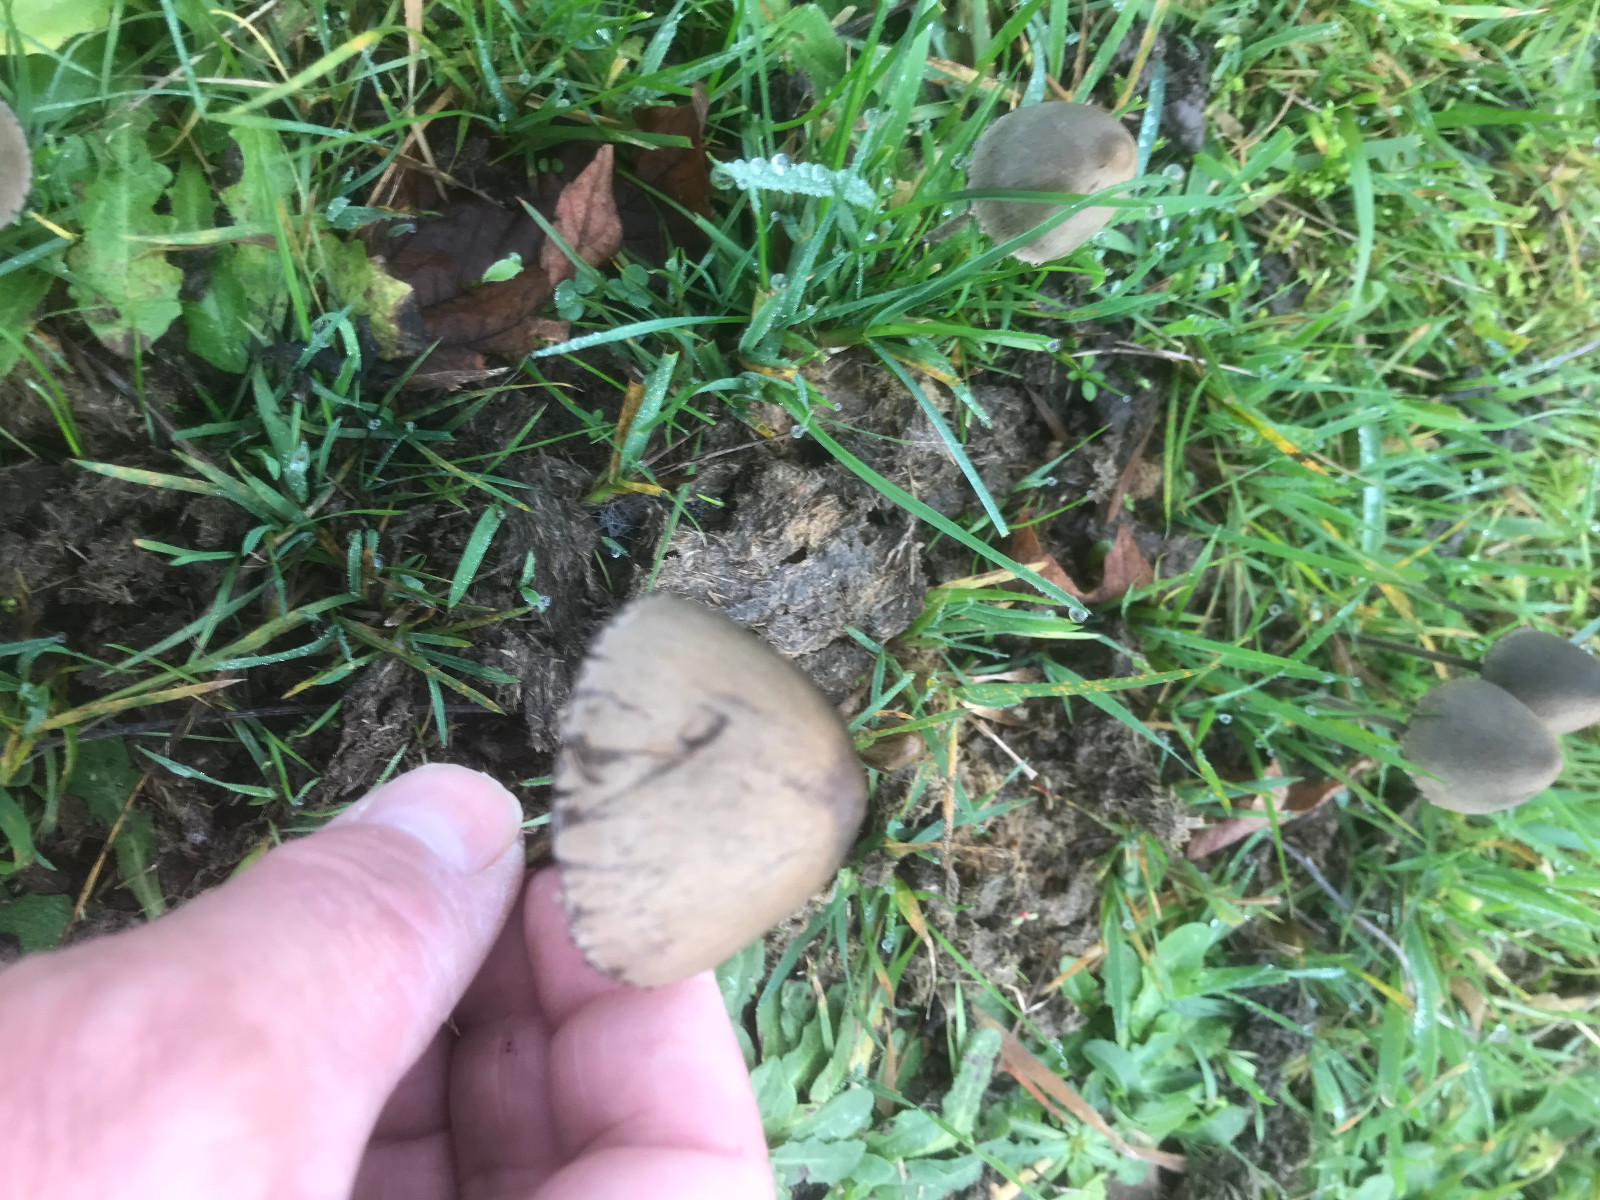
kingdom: Fungi
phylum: Basidiomycota
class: Agaricomycetes
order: Agaricales
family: Bolbitiaceae
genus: Panaeolus
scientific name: Panaeolus papilionaceus
